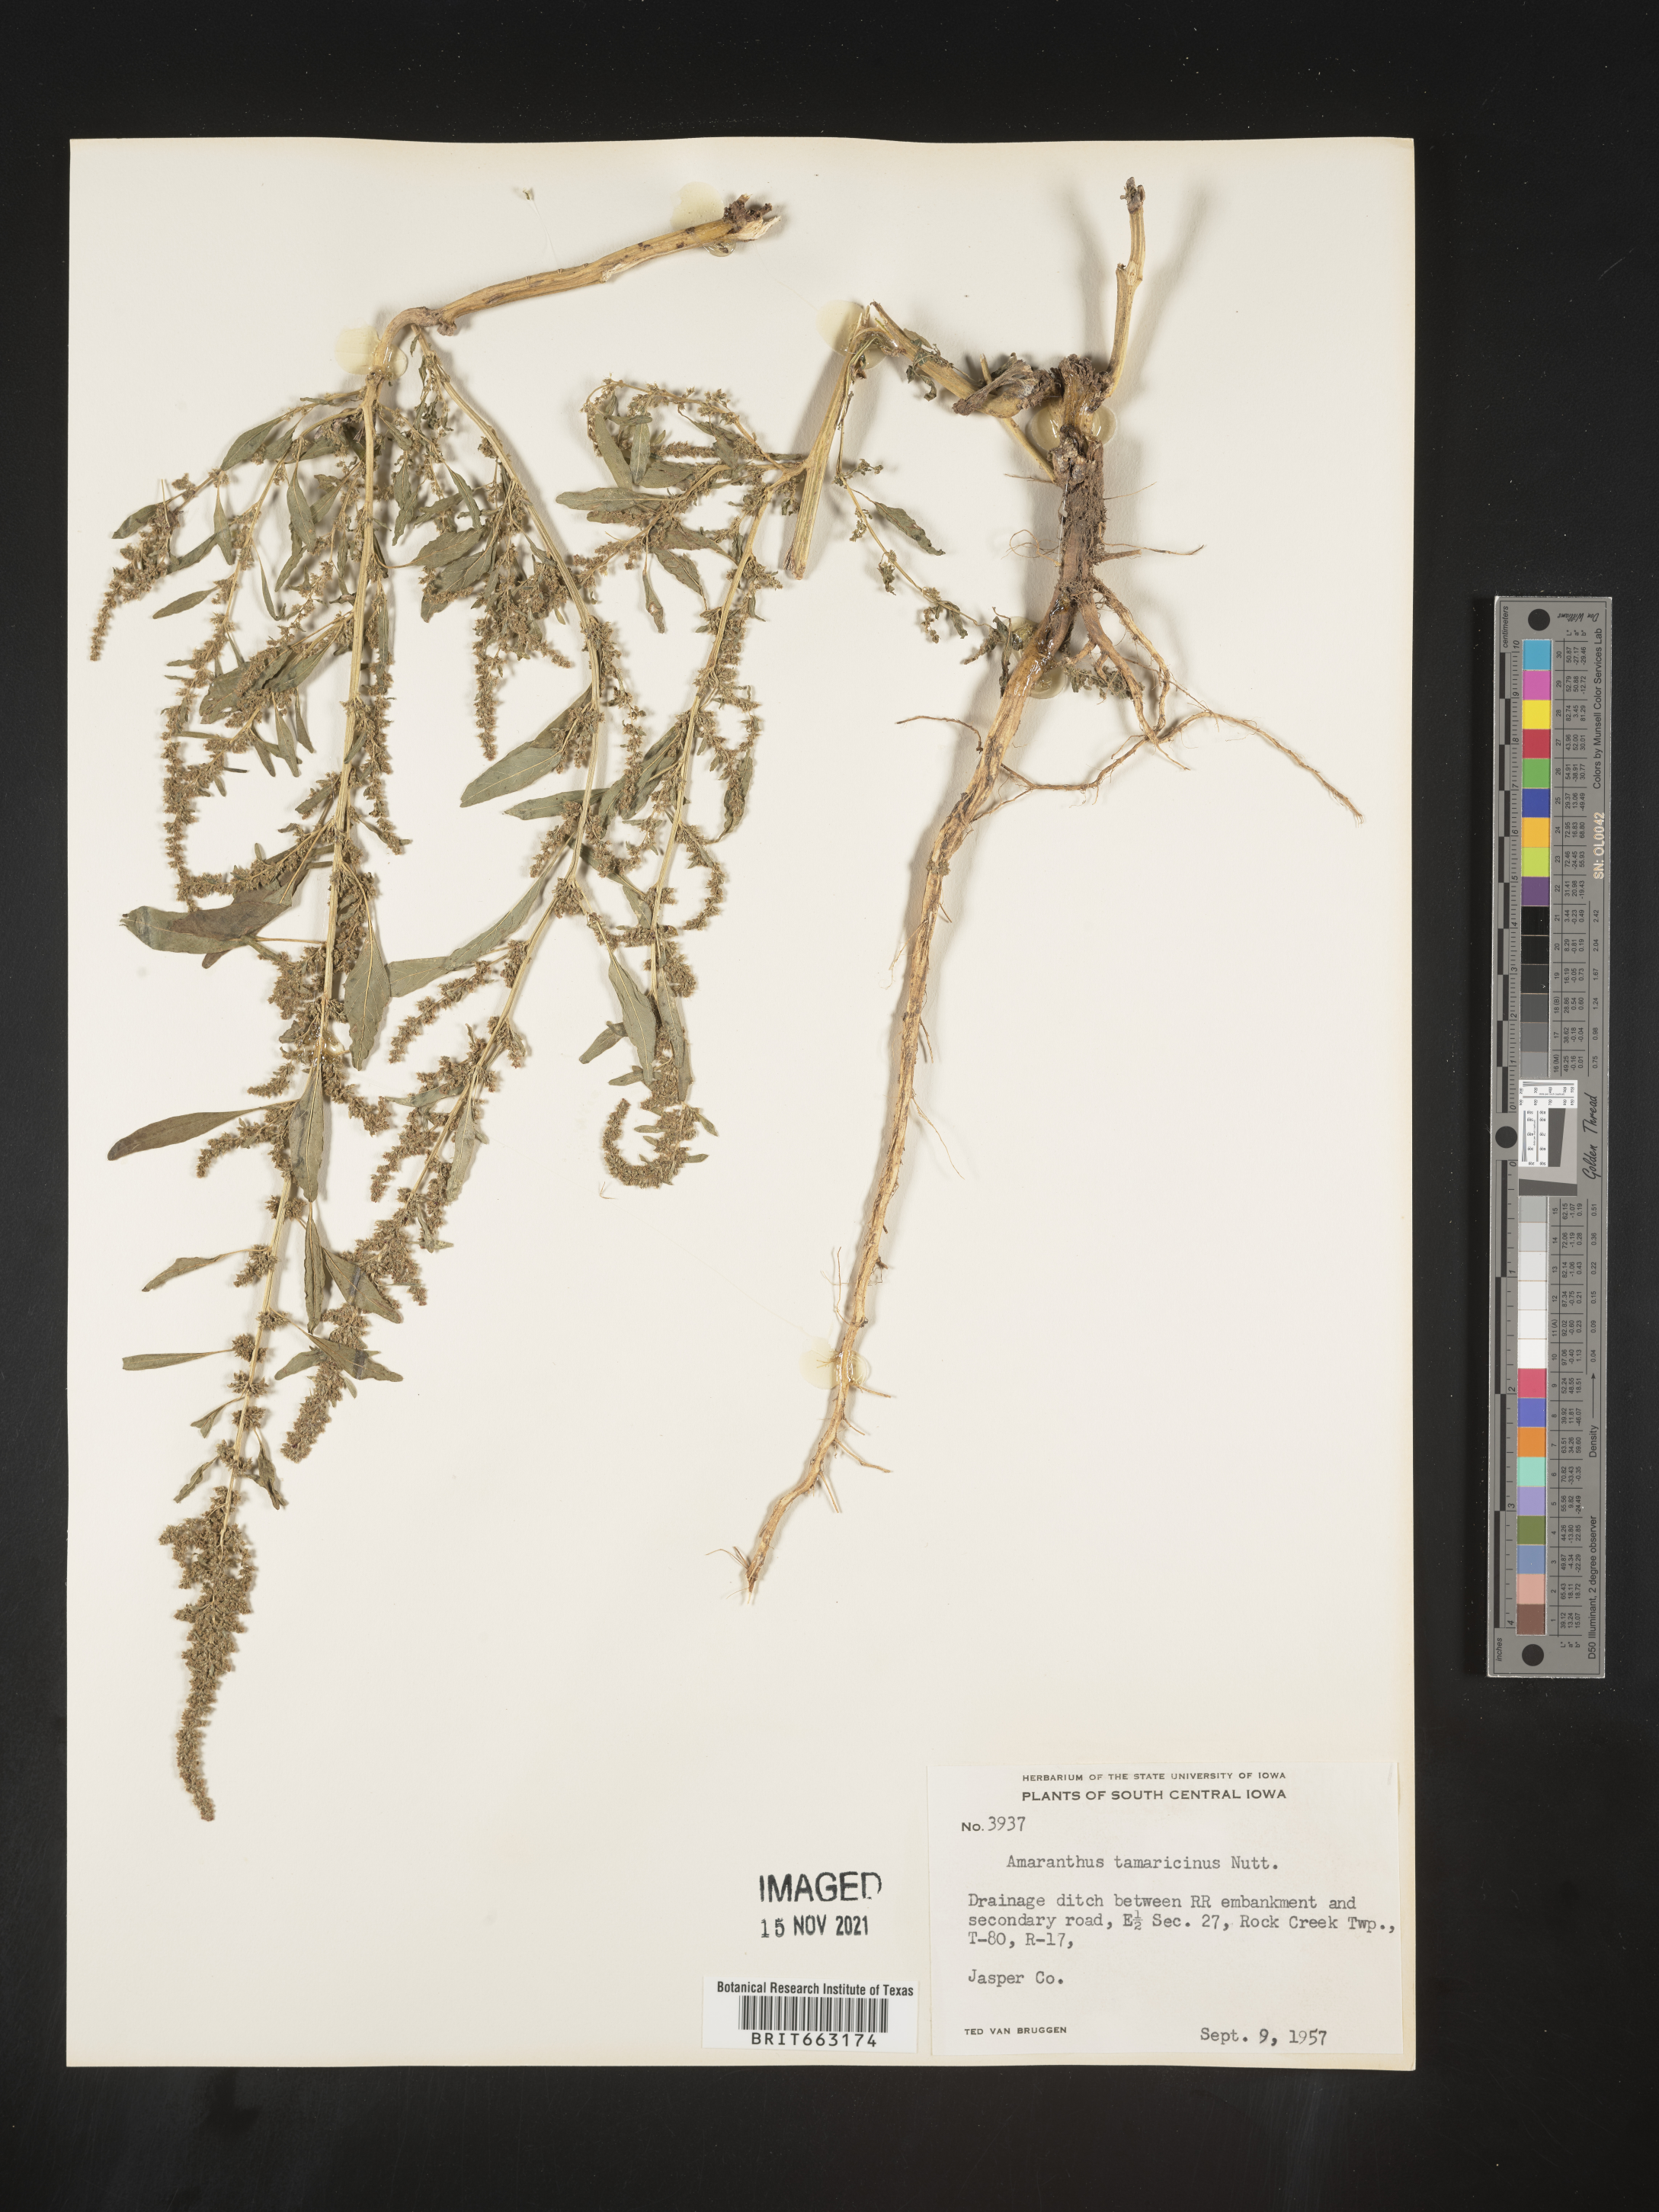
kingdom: Plantae
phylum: Tracheophyta
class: Magnoliopsida
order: Caryophyllales
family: Amaranthaceae
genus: Amaranthus
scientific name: Amaranthus tamariscinus
